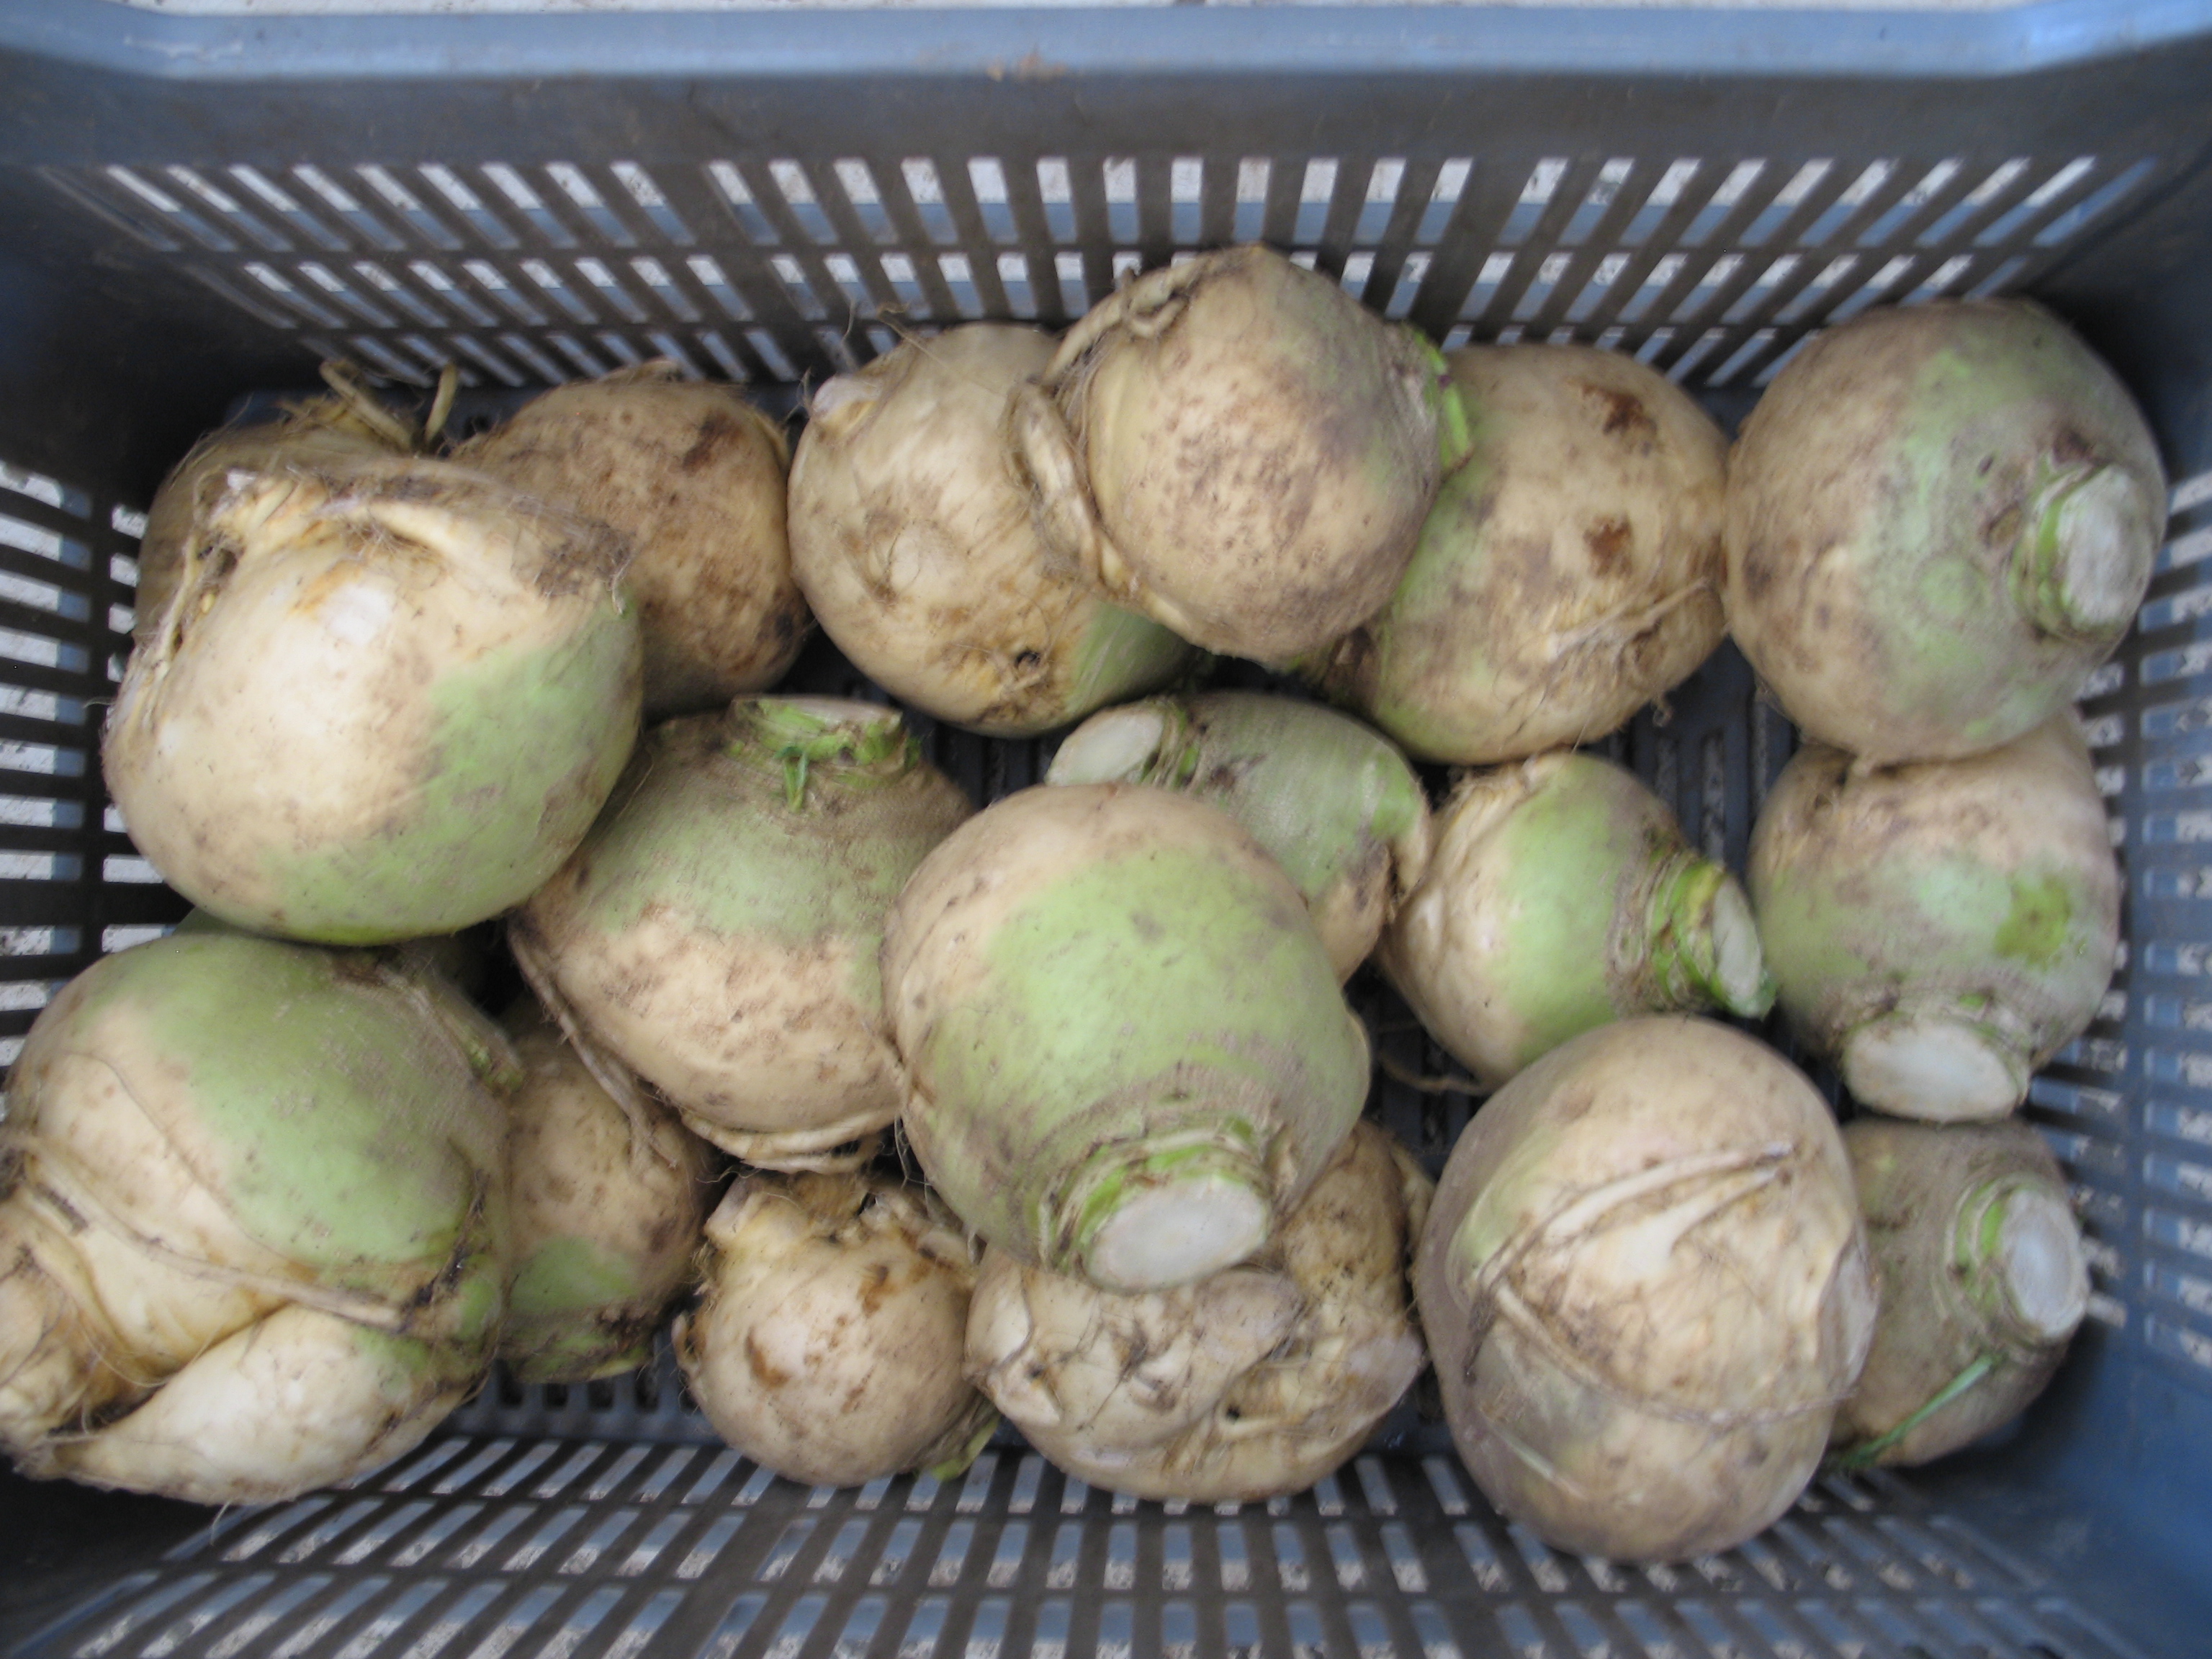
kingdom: Plantae
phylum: Tracheophyta
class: Magnoliopsida
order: Brassicales
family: Brassicaceae
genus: Brassica
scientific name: Brassica napus
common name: Rape
